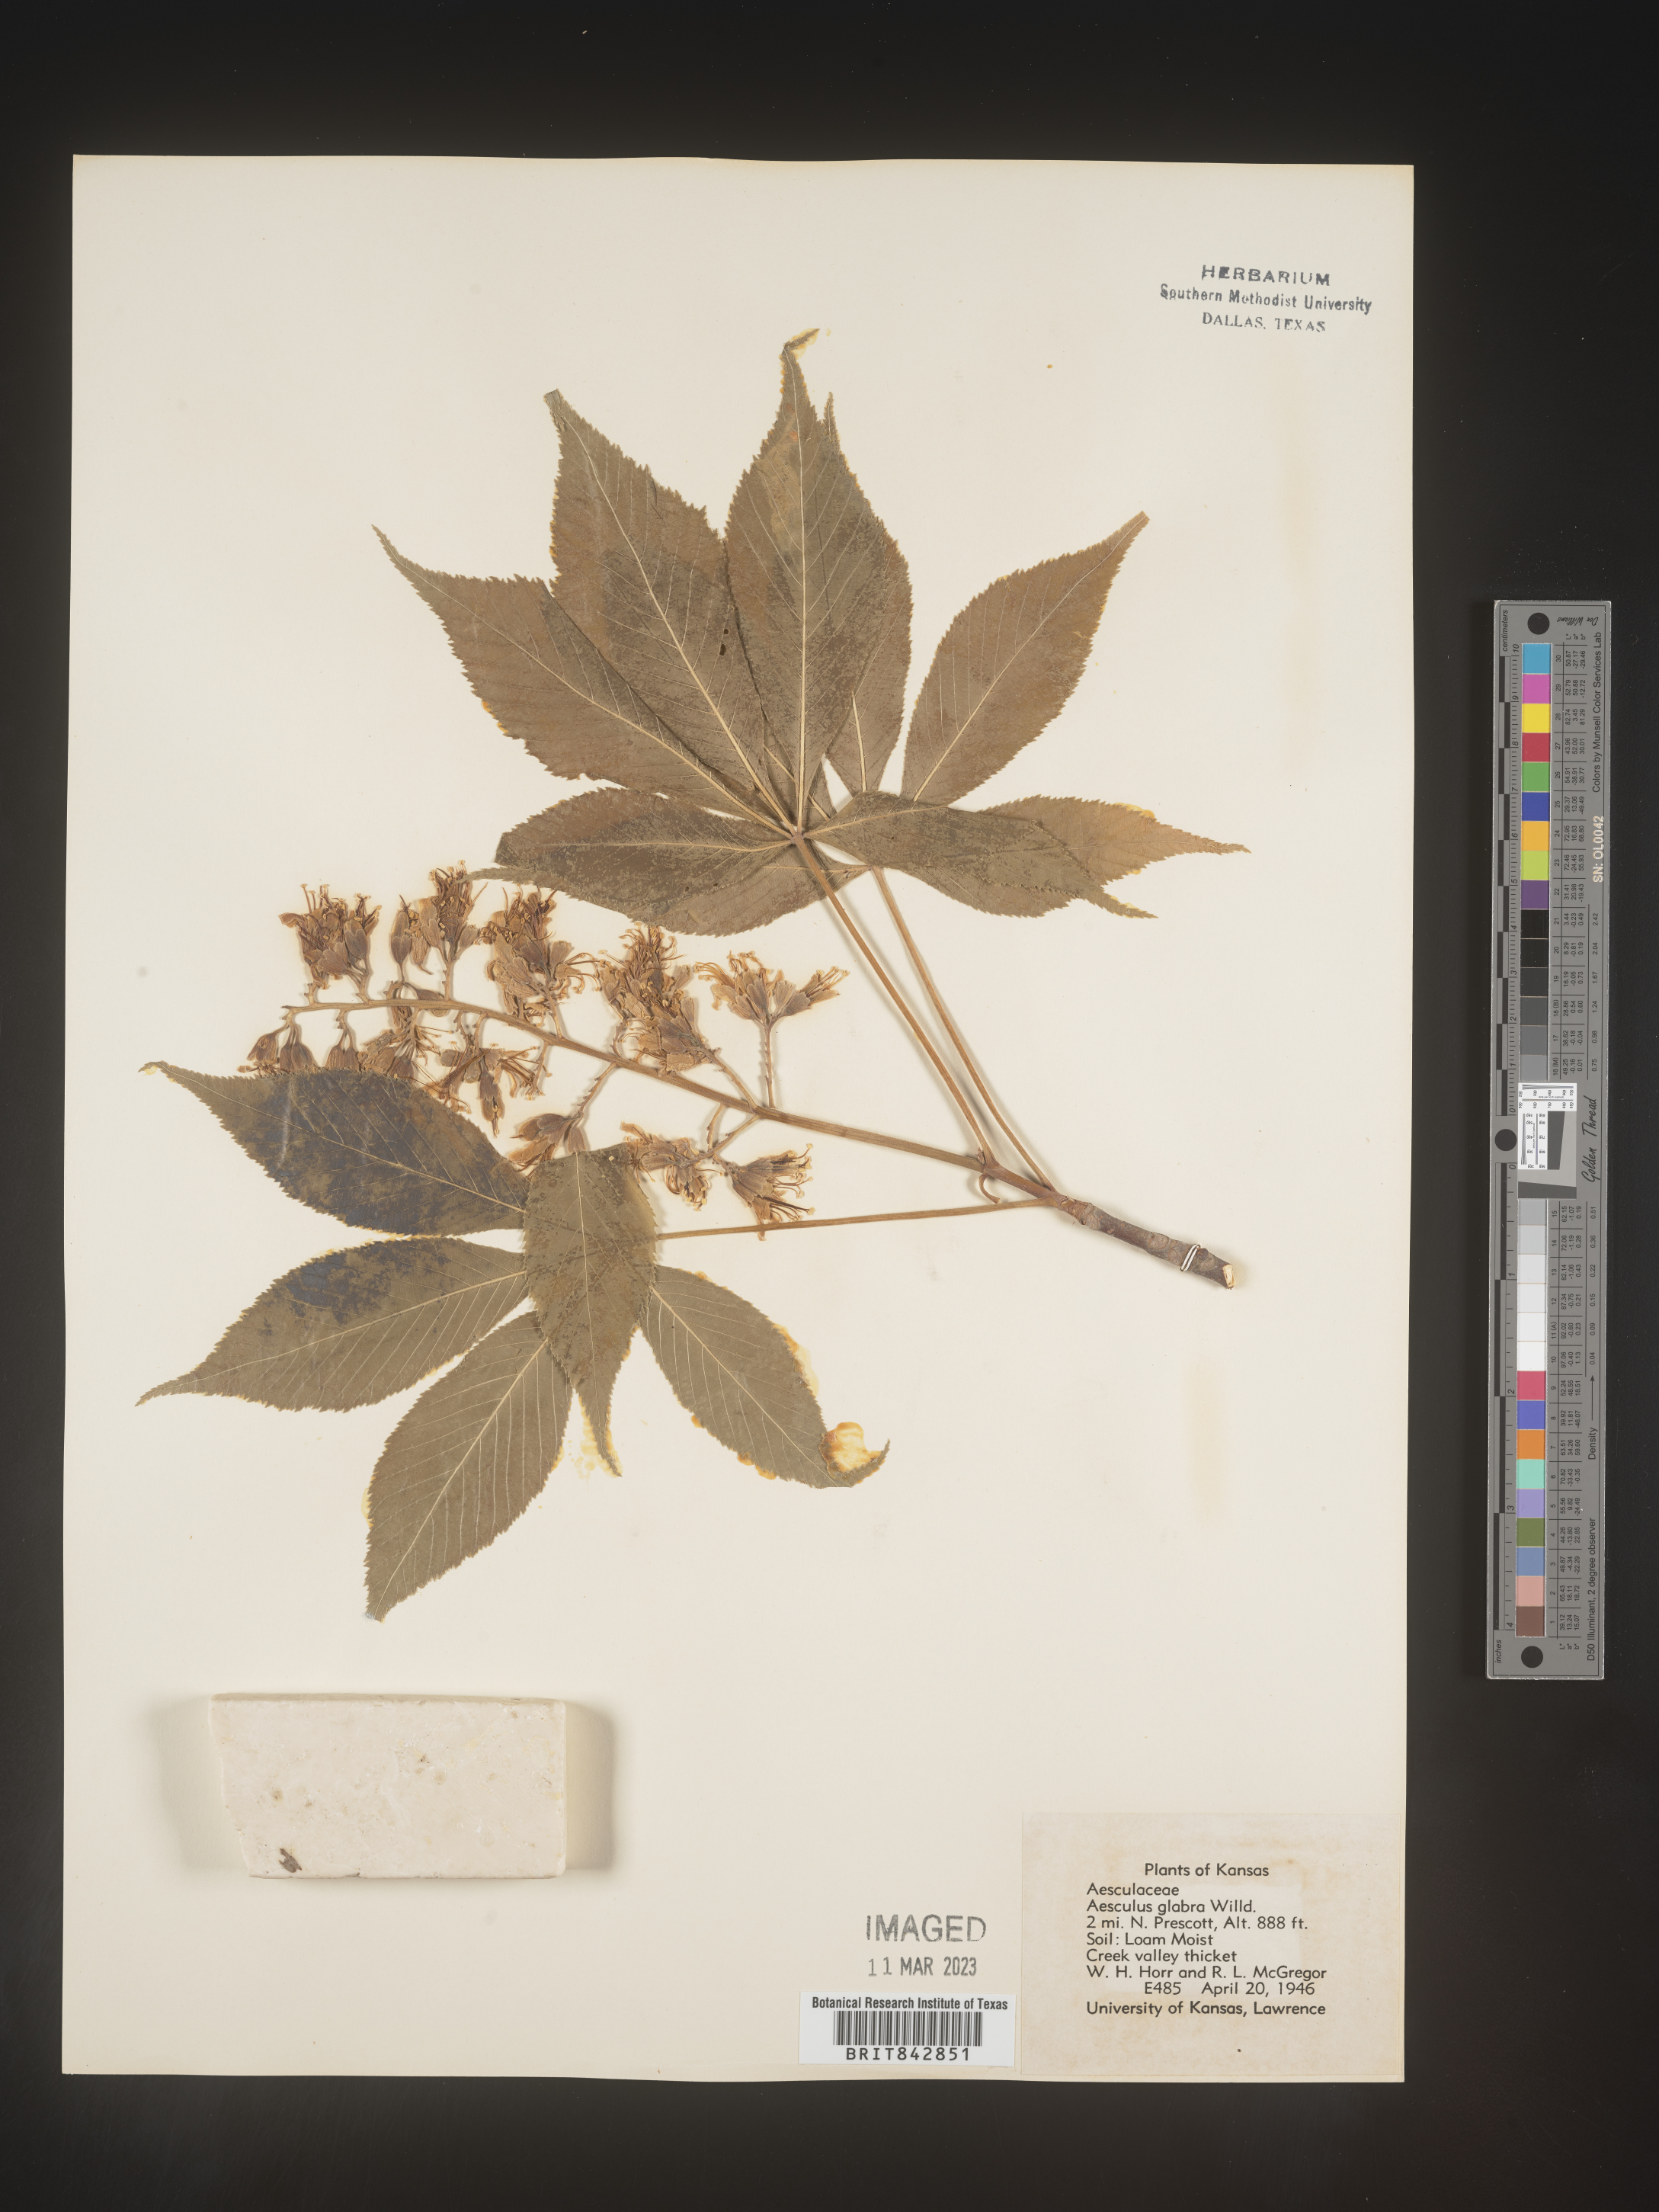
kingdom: Plantae
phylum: Tracheophyta
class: Magnoliopsida
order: Sapindales
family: Sapindaceae
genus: Aesculus
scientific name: Aesculus glabra
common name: Ohio buckeye
